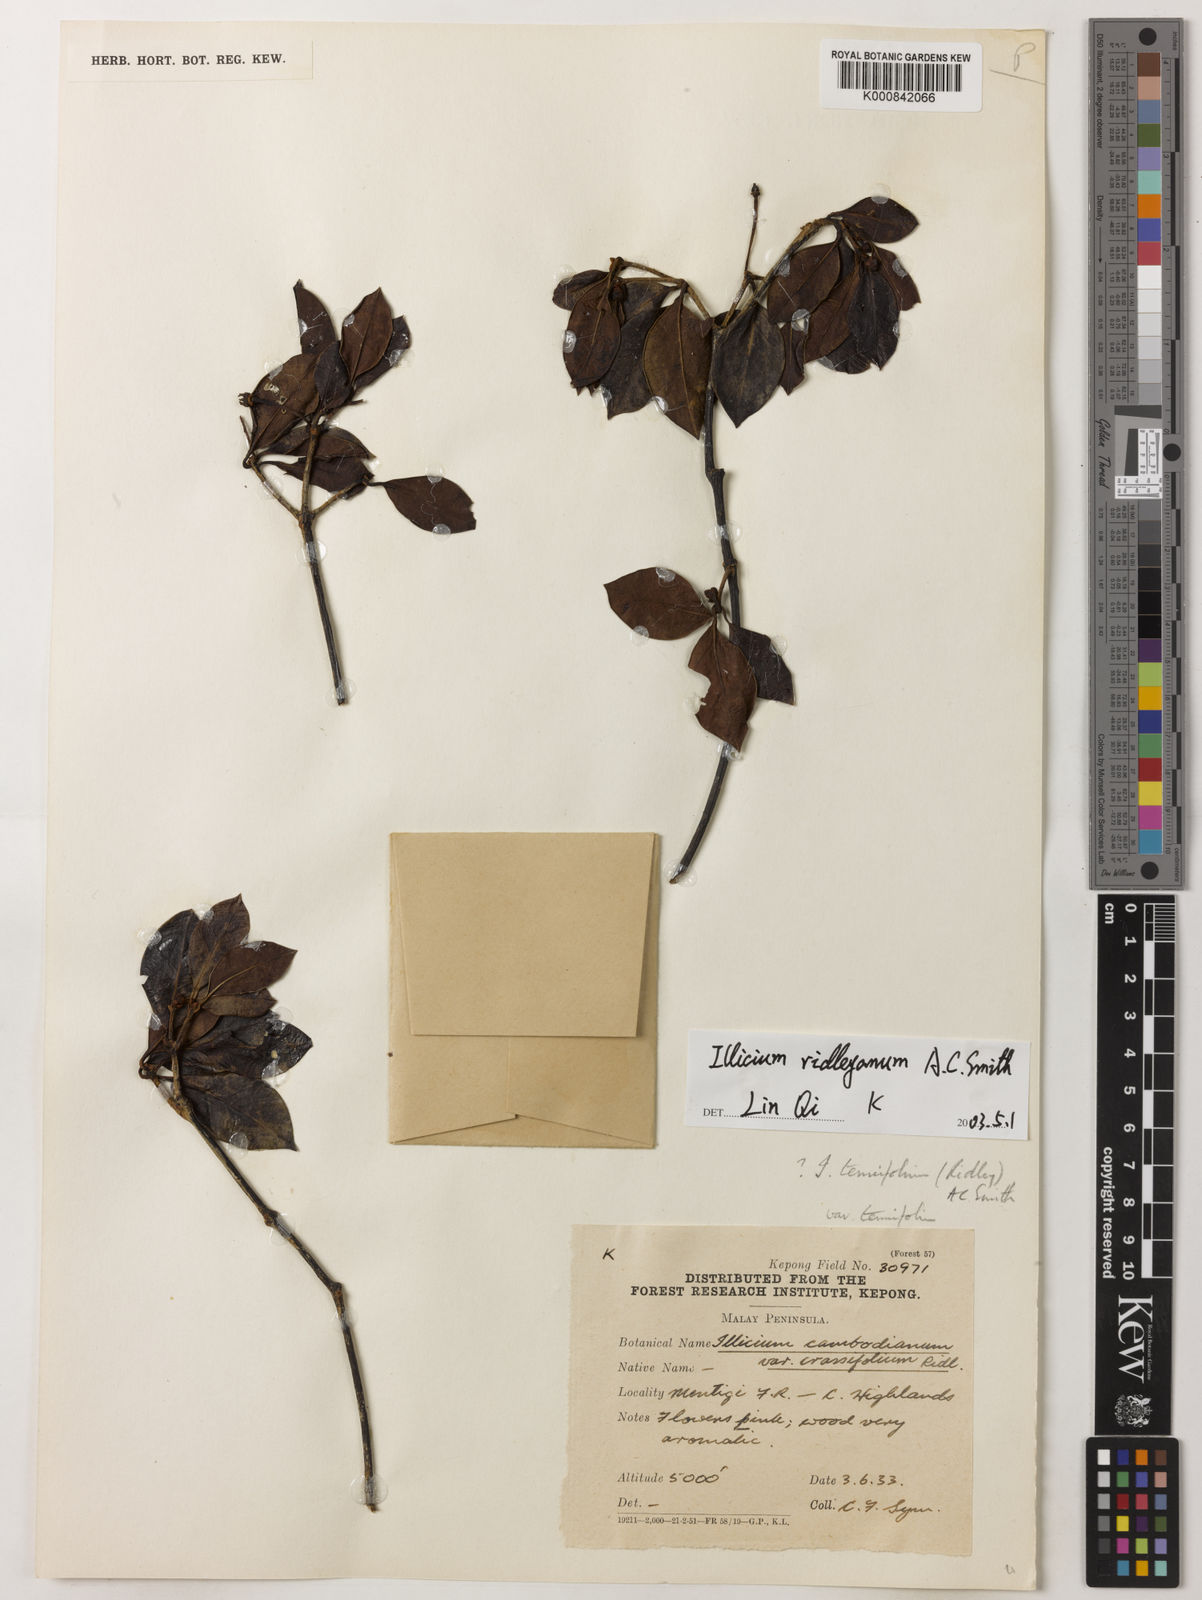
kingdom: Plantae
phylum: Tracheophyta
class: Magnoliopsida
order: Austrobaileyales
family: Schisandraceae
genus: Illicium
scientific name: Illicium ridleyanum
